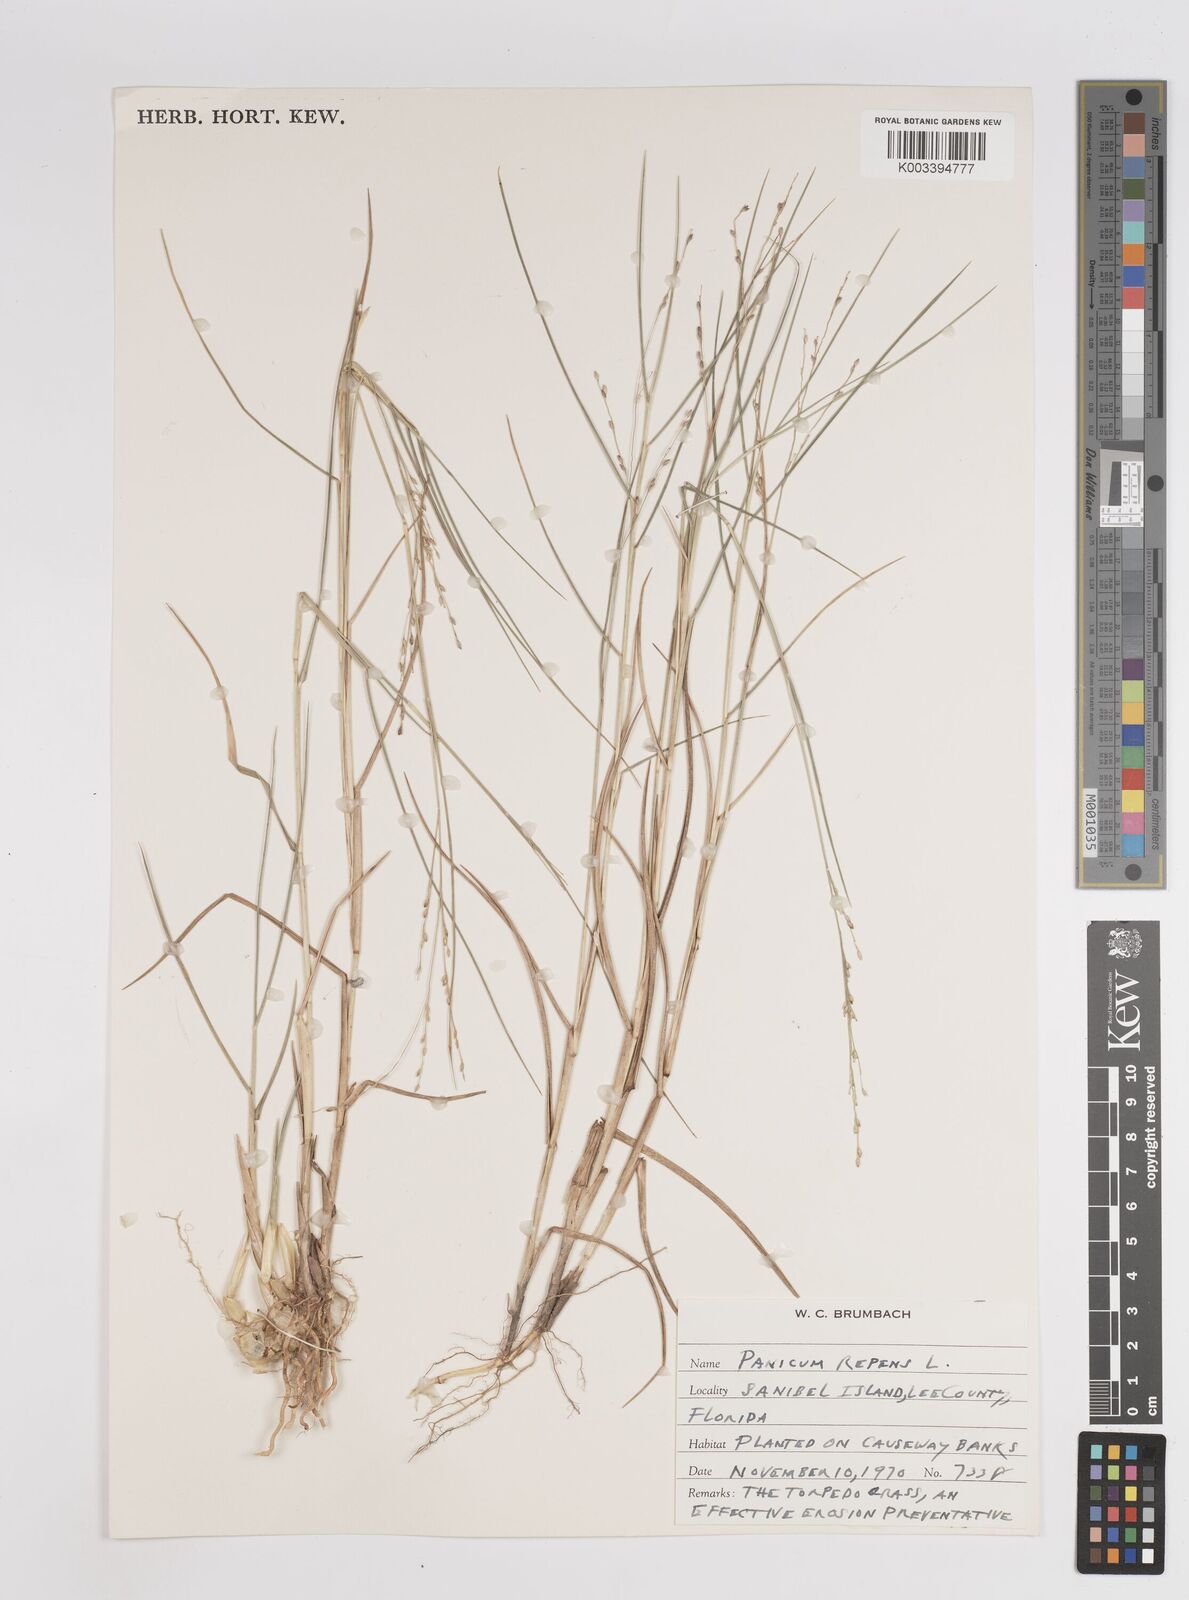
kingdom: Plantae
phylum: Tracheophyta
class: Liliopsida
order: Poales
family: Poaceae
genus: Panicum
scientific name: Panicum repens
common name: Torpedo grass
